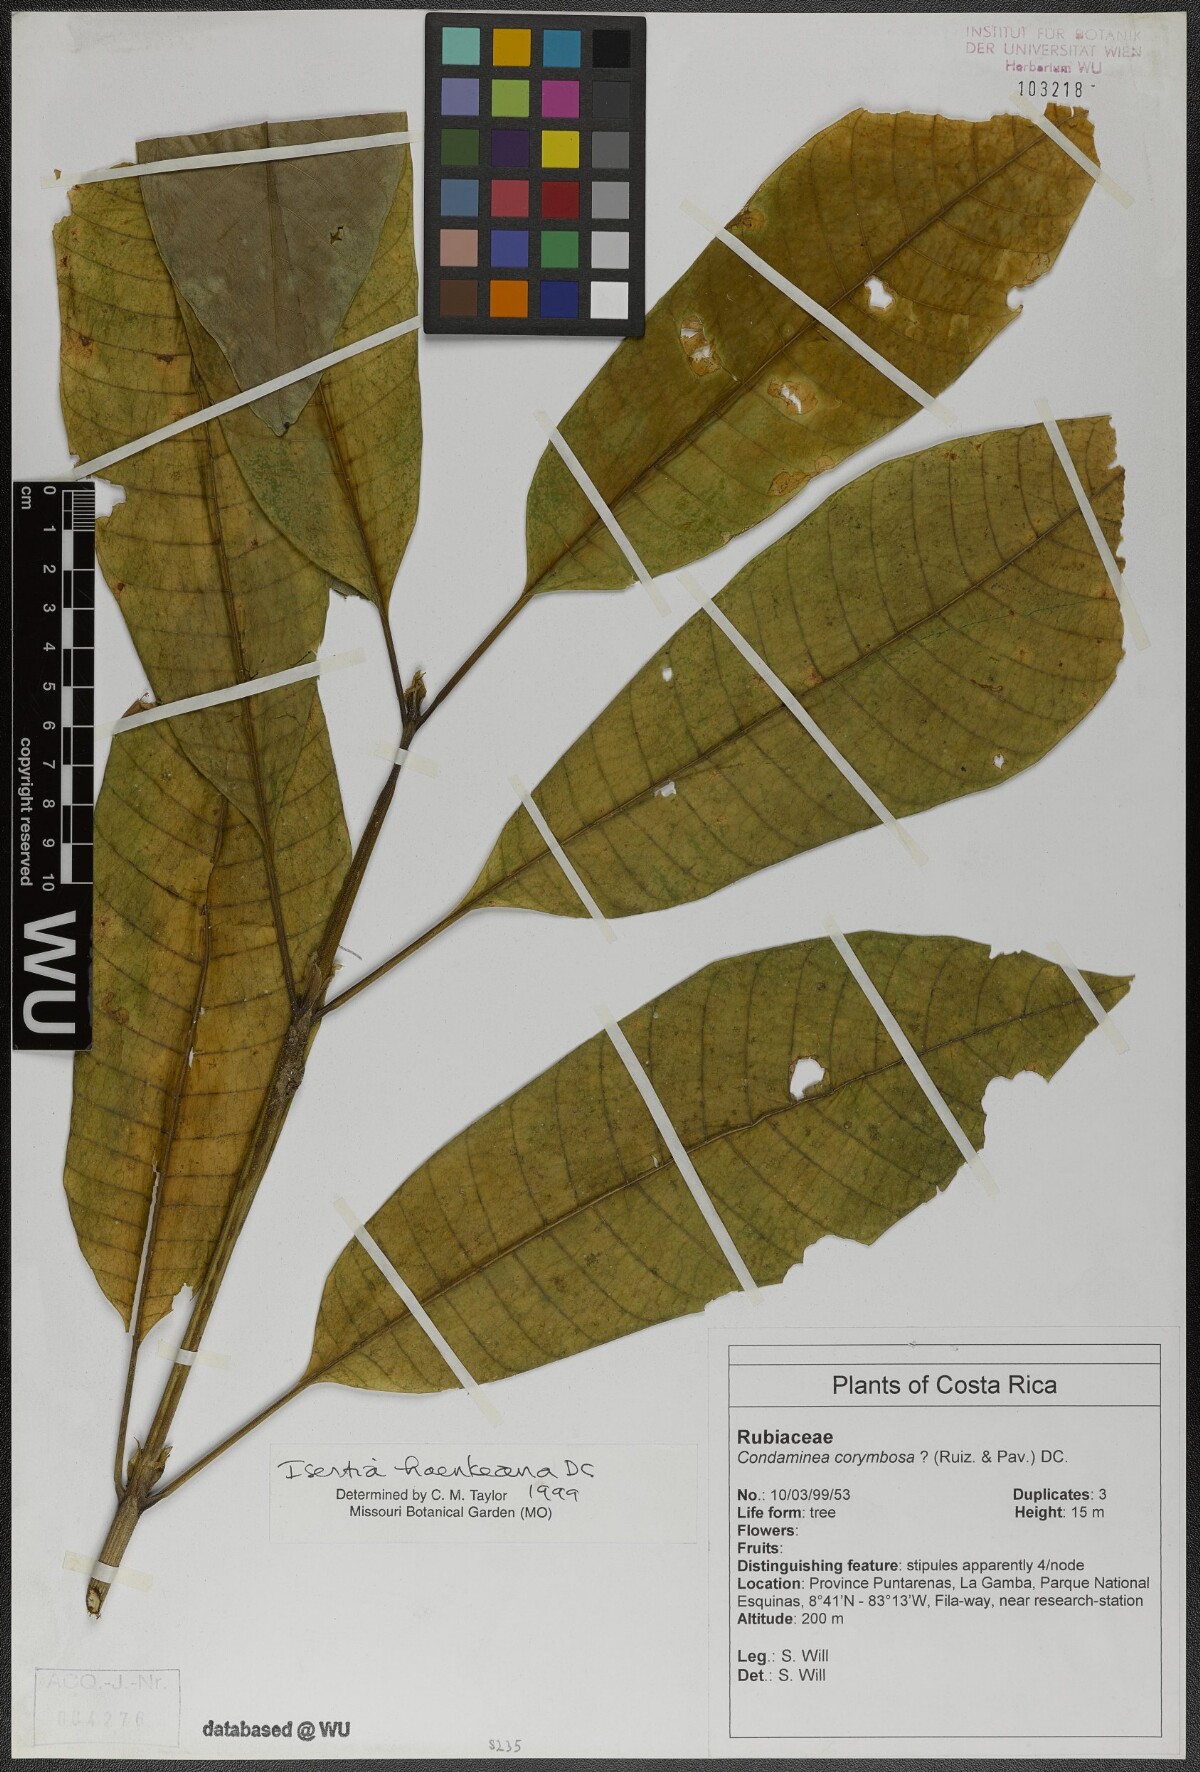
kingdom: Plantae
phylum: Tracheophyta
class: Magnoliopsida
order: Gentianales
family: Rubiaceae
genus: Isertia
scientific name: Isertia haenkeana
